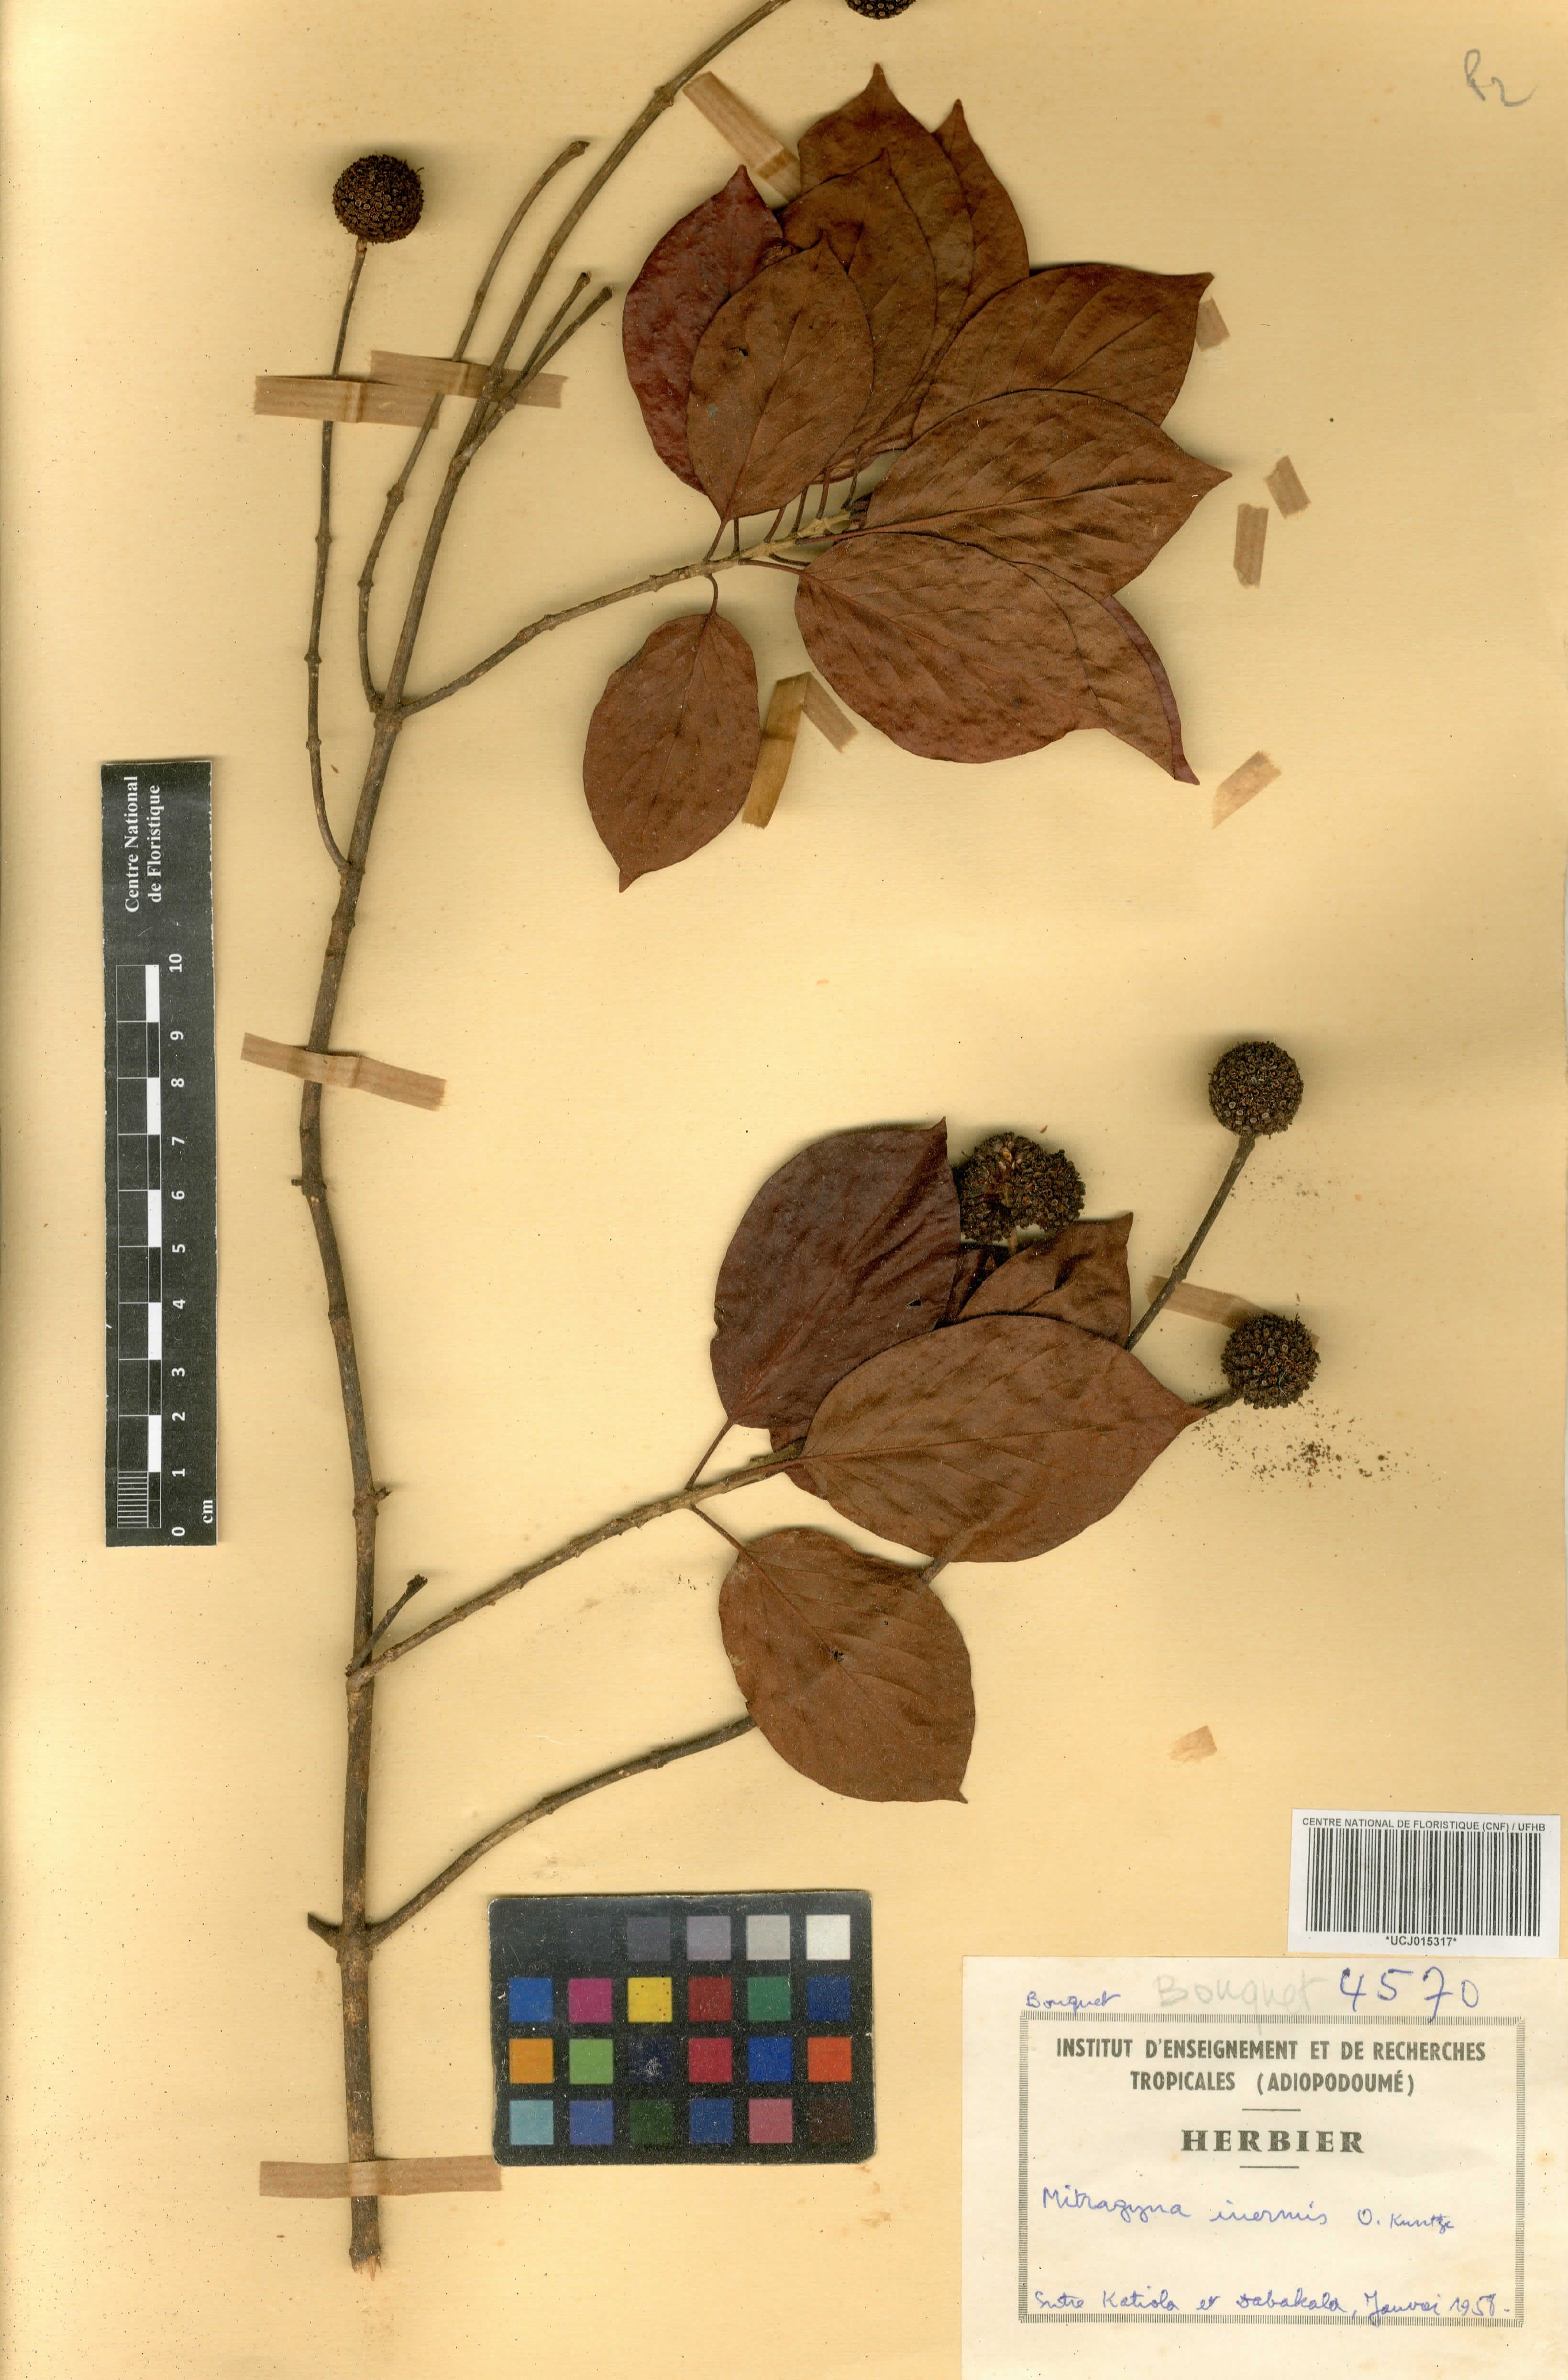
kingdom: Plantae
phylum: Tracheophyta
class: Magnoliopsida
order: Gentianales
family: Rubiaceae
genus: Mitragyna
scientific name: Mitragyna inermis
